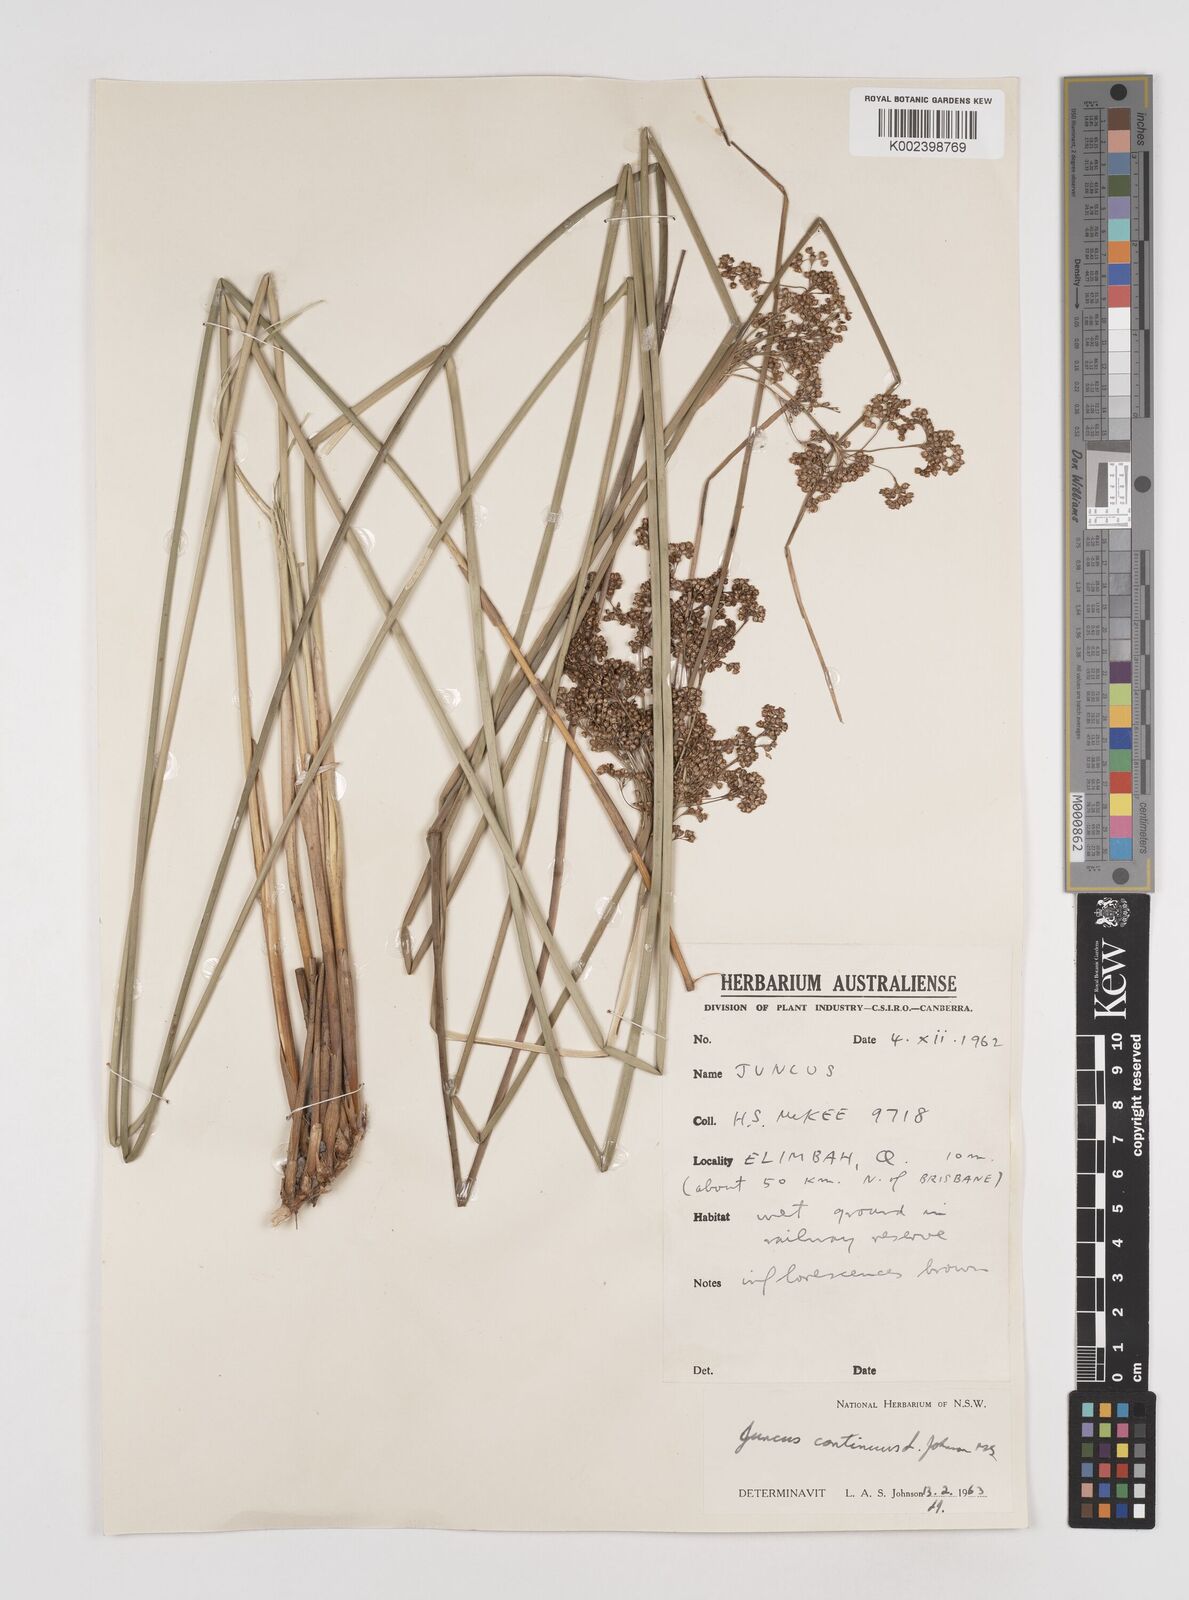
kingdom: Plantae
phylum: Tracheophyta
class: Liliopsida
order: Poales
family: Juncaceae
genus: Juncus
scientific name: Juncus continuus
